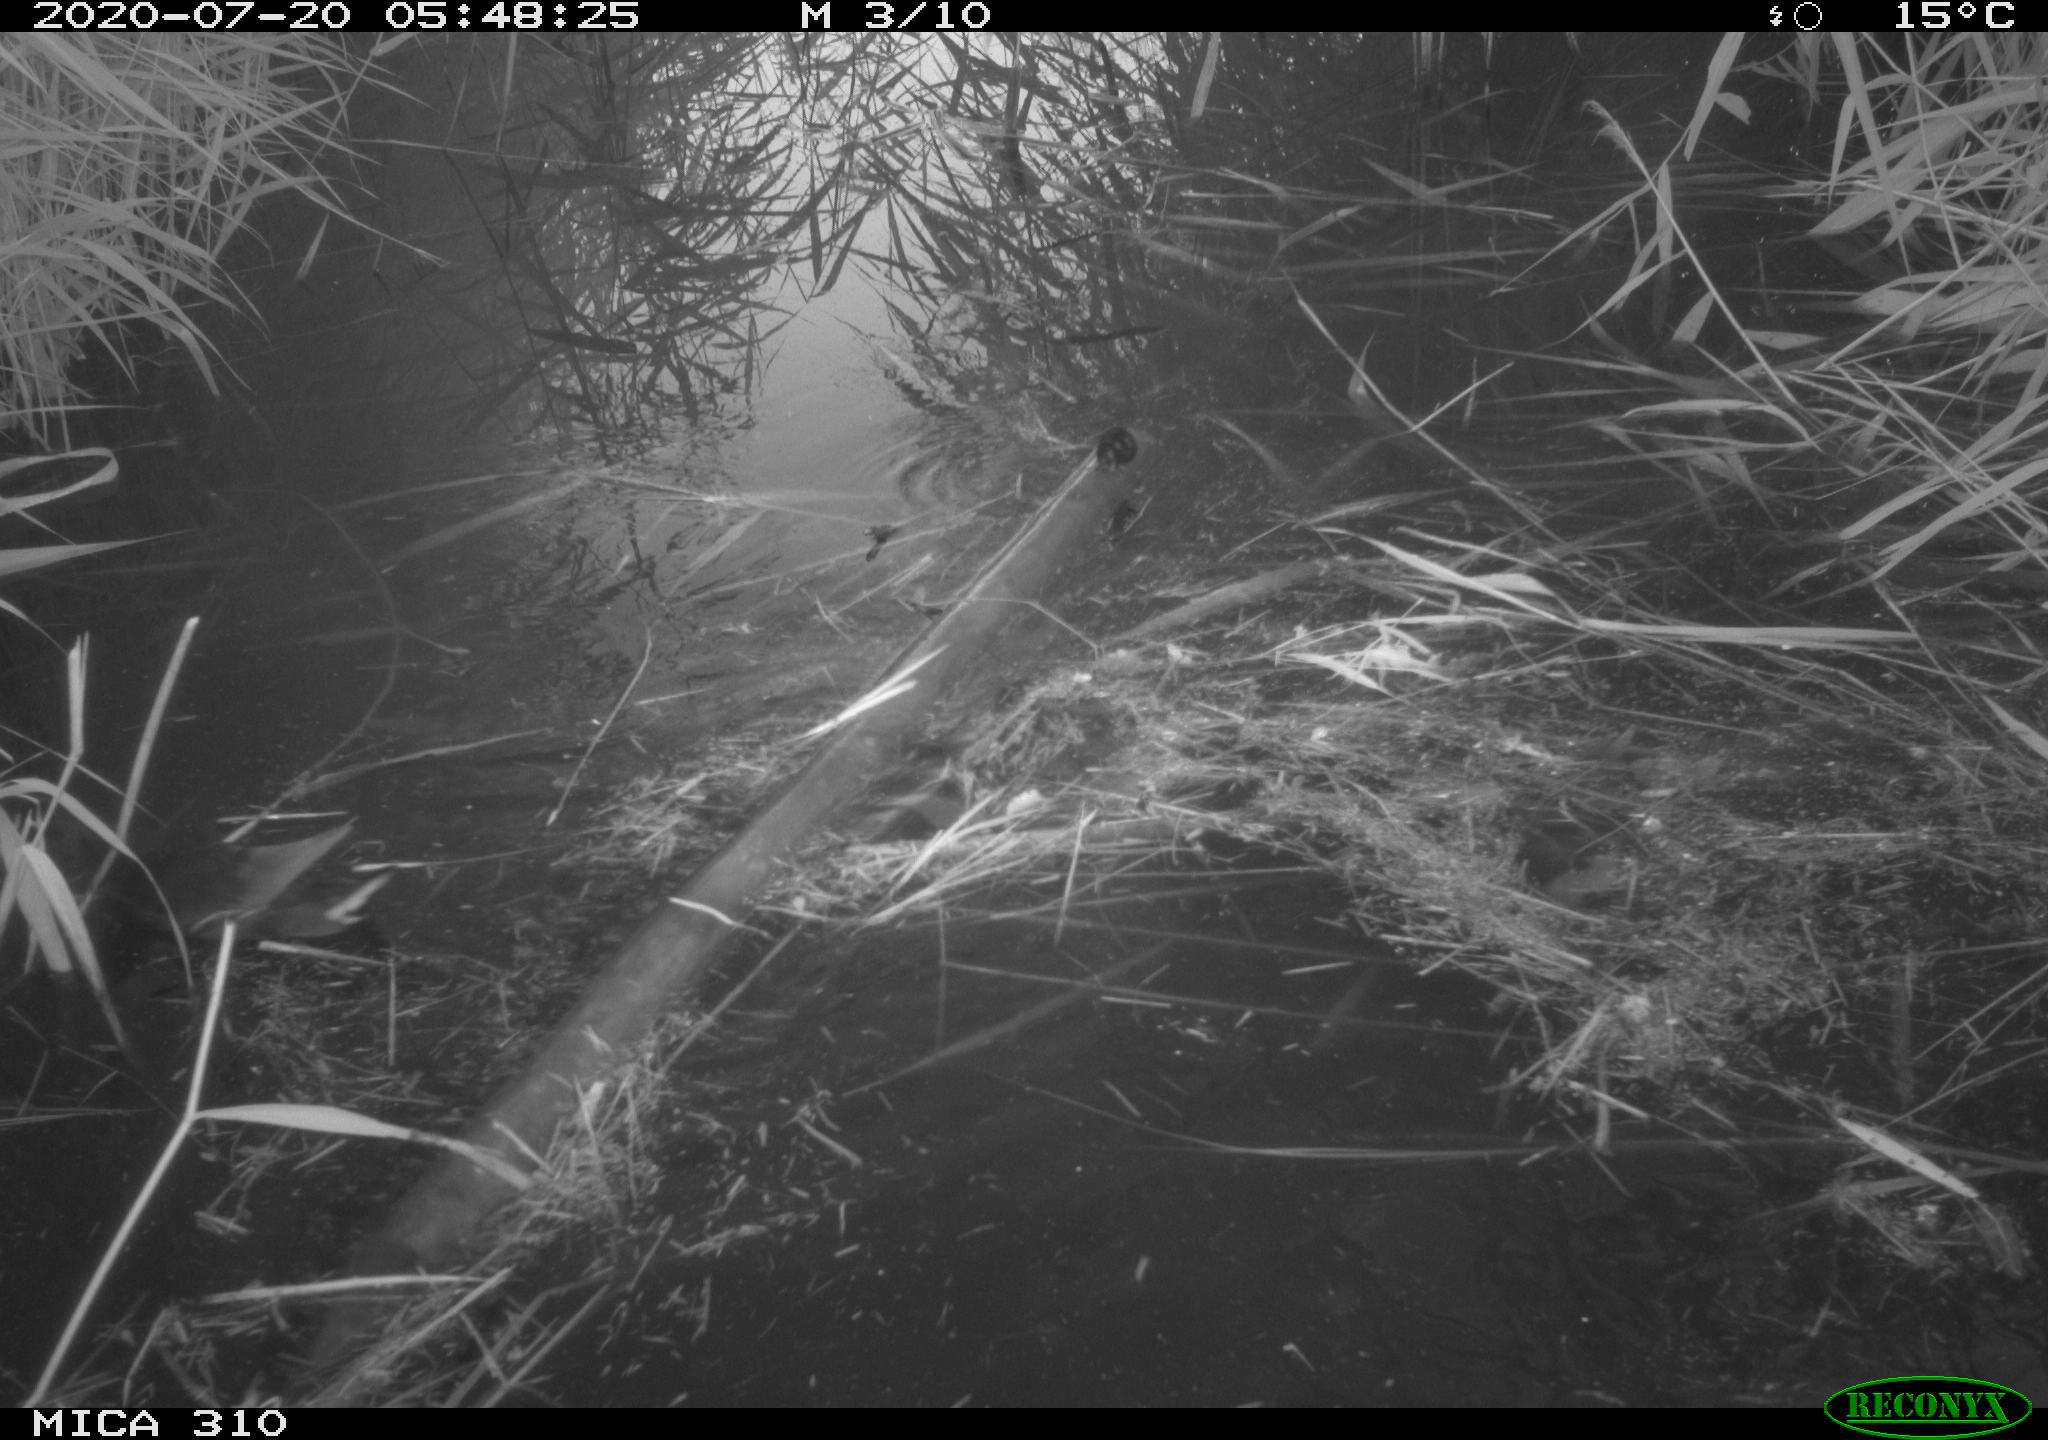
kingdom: Animalia
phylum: Chordata
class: Aves
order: Gruiformes
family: Rallidae
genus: Gallinula
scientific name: Gallinula chloropus
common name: Common moorhen
